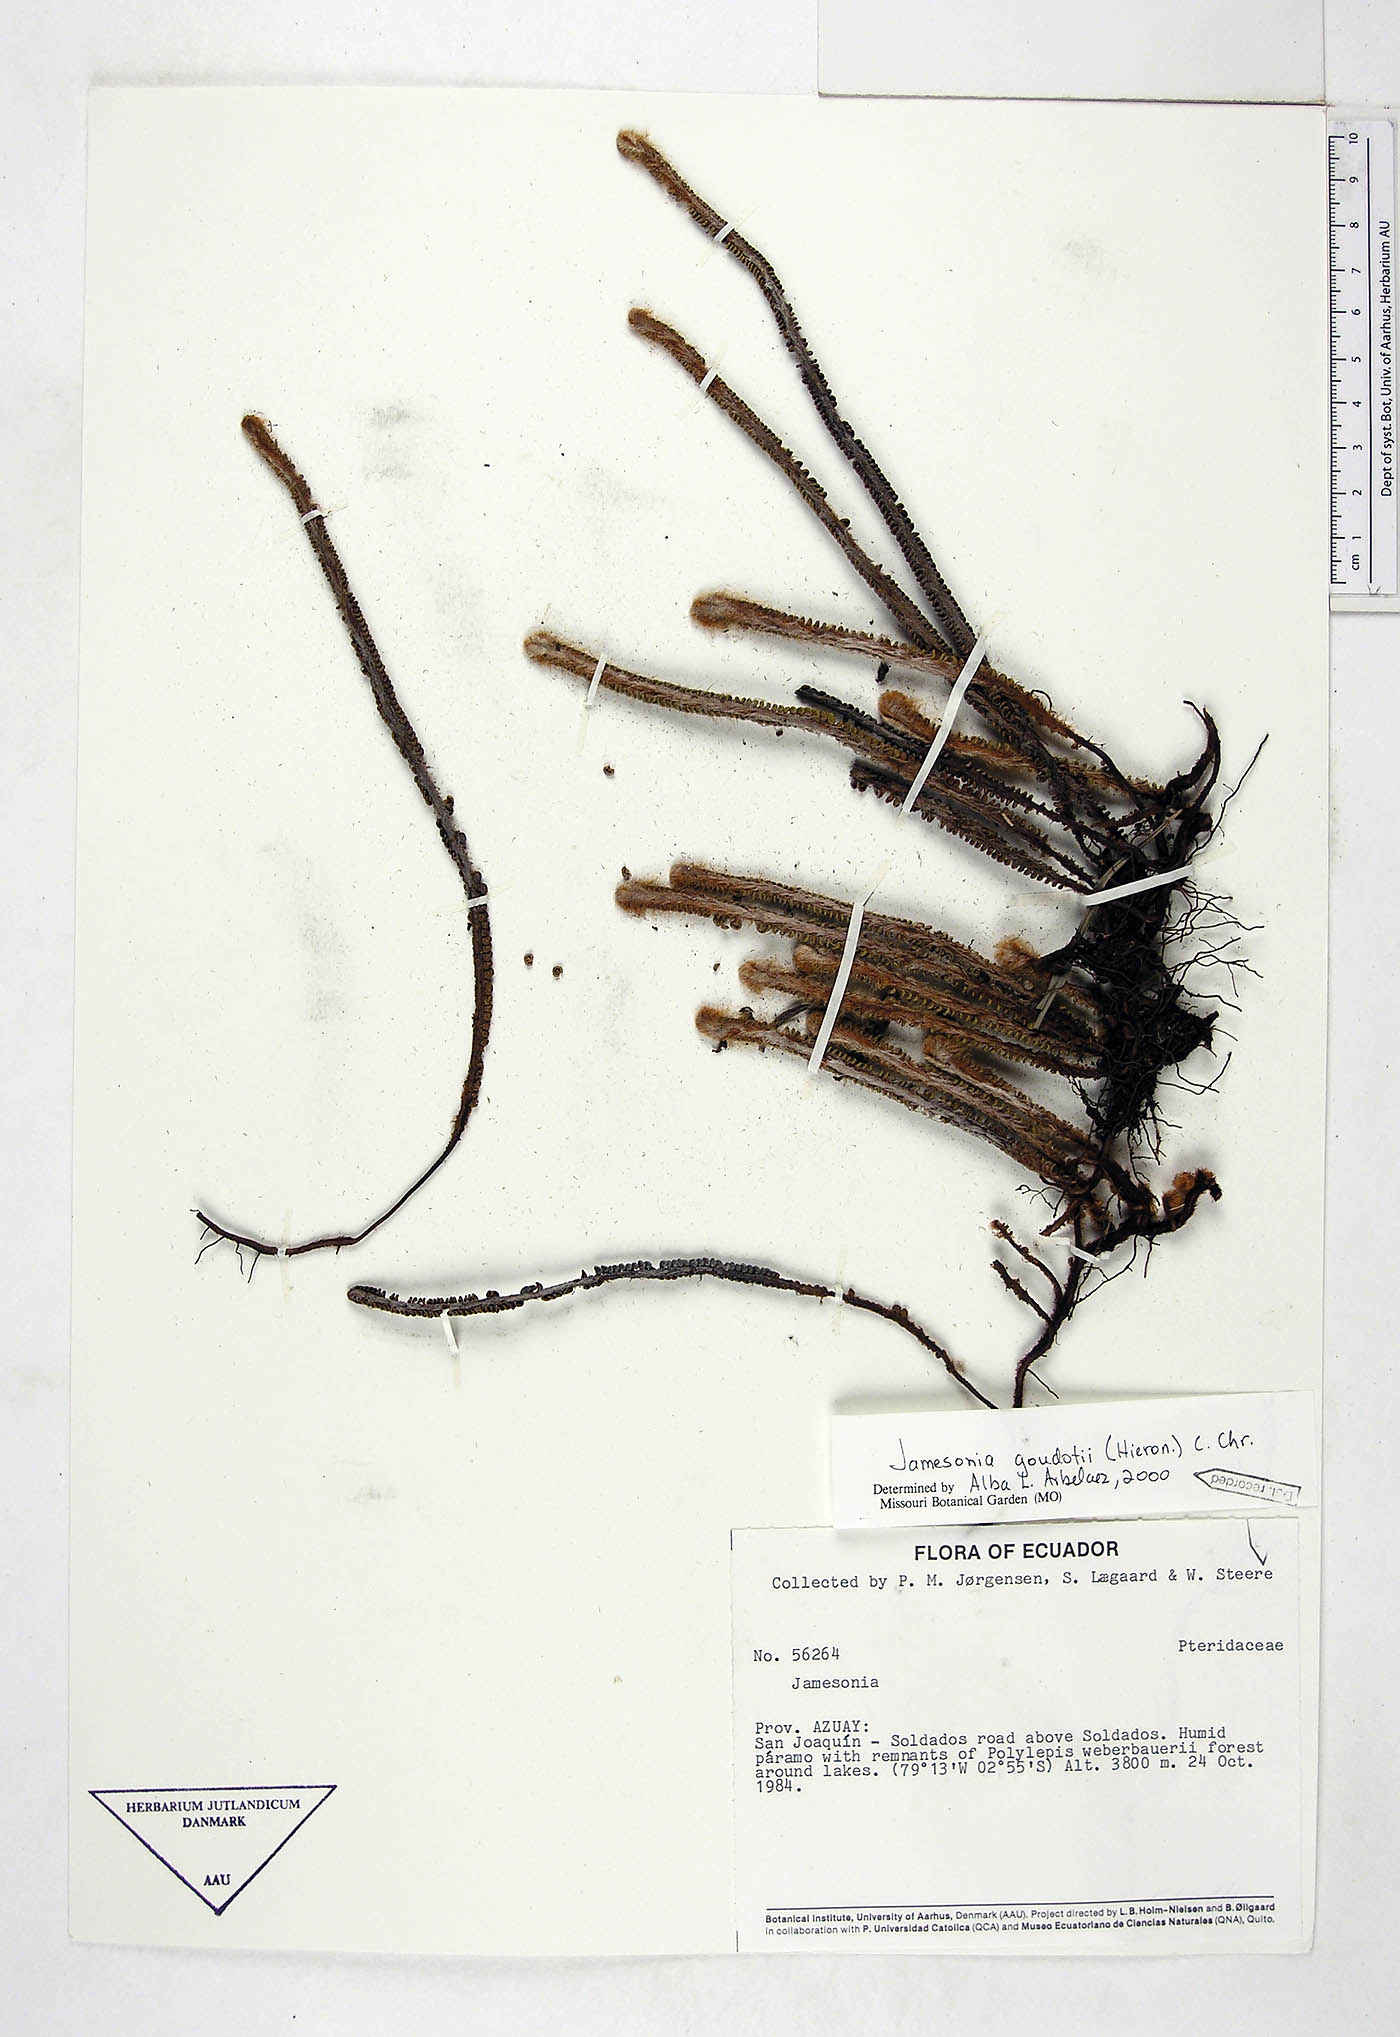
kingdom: Plantae
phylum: Tracheophyta
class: Polypodiopsida
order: Polypodiales
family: Pteridaceae
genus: Jamesonia
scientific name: Jamesonia goudotii
